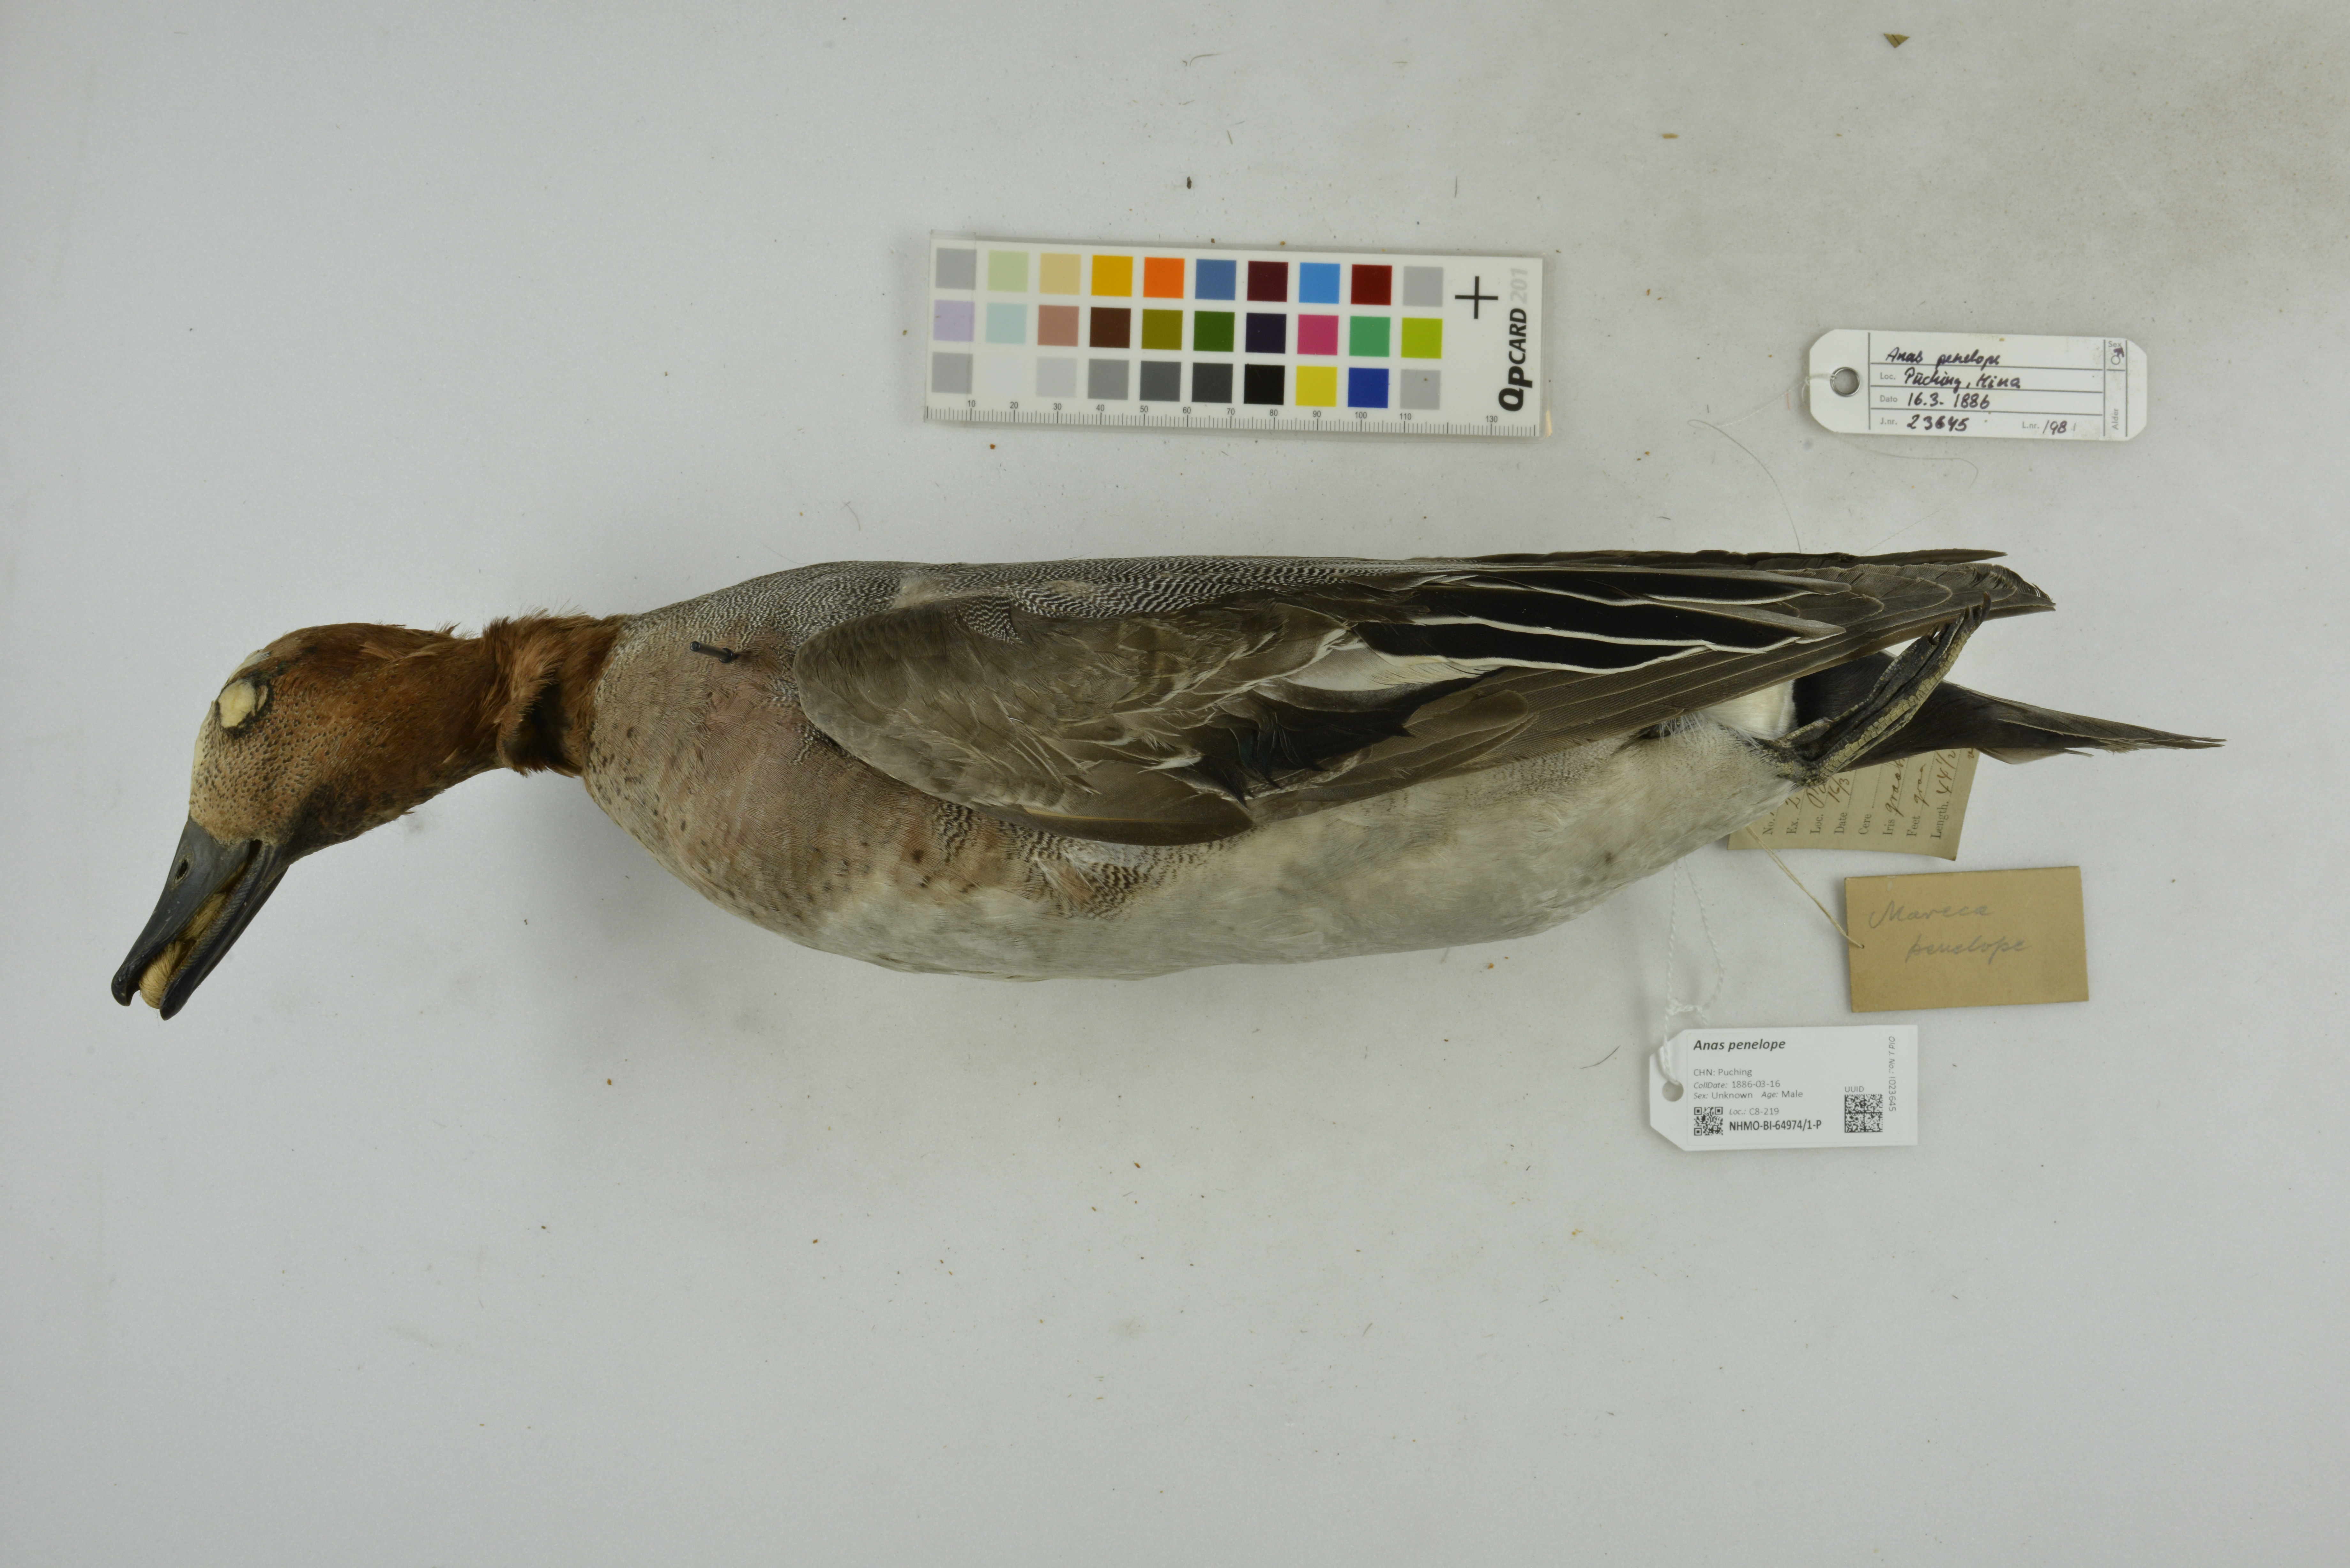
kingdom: Animalia
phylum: Chordata
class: Aves
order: Anseriformes
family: Anatidae
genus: Mareca
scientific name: Mareca penelope
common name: Eurasian wigeon
